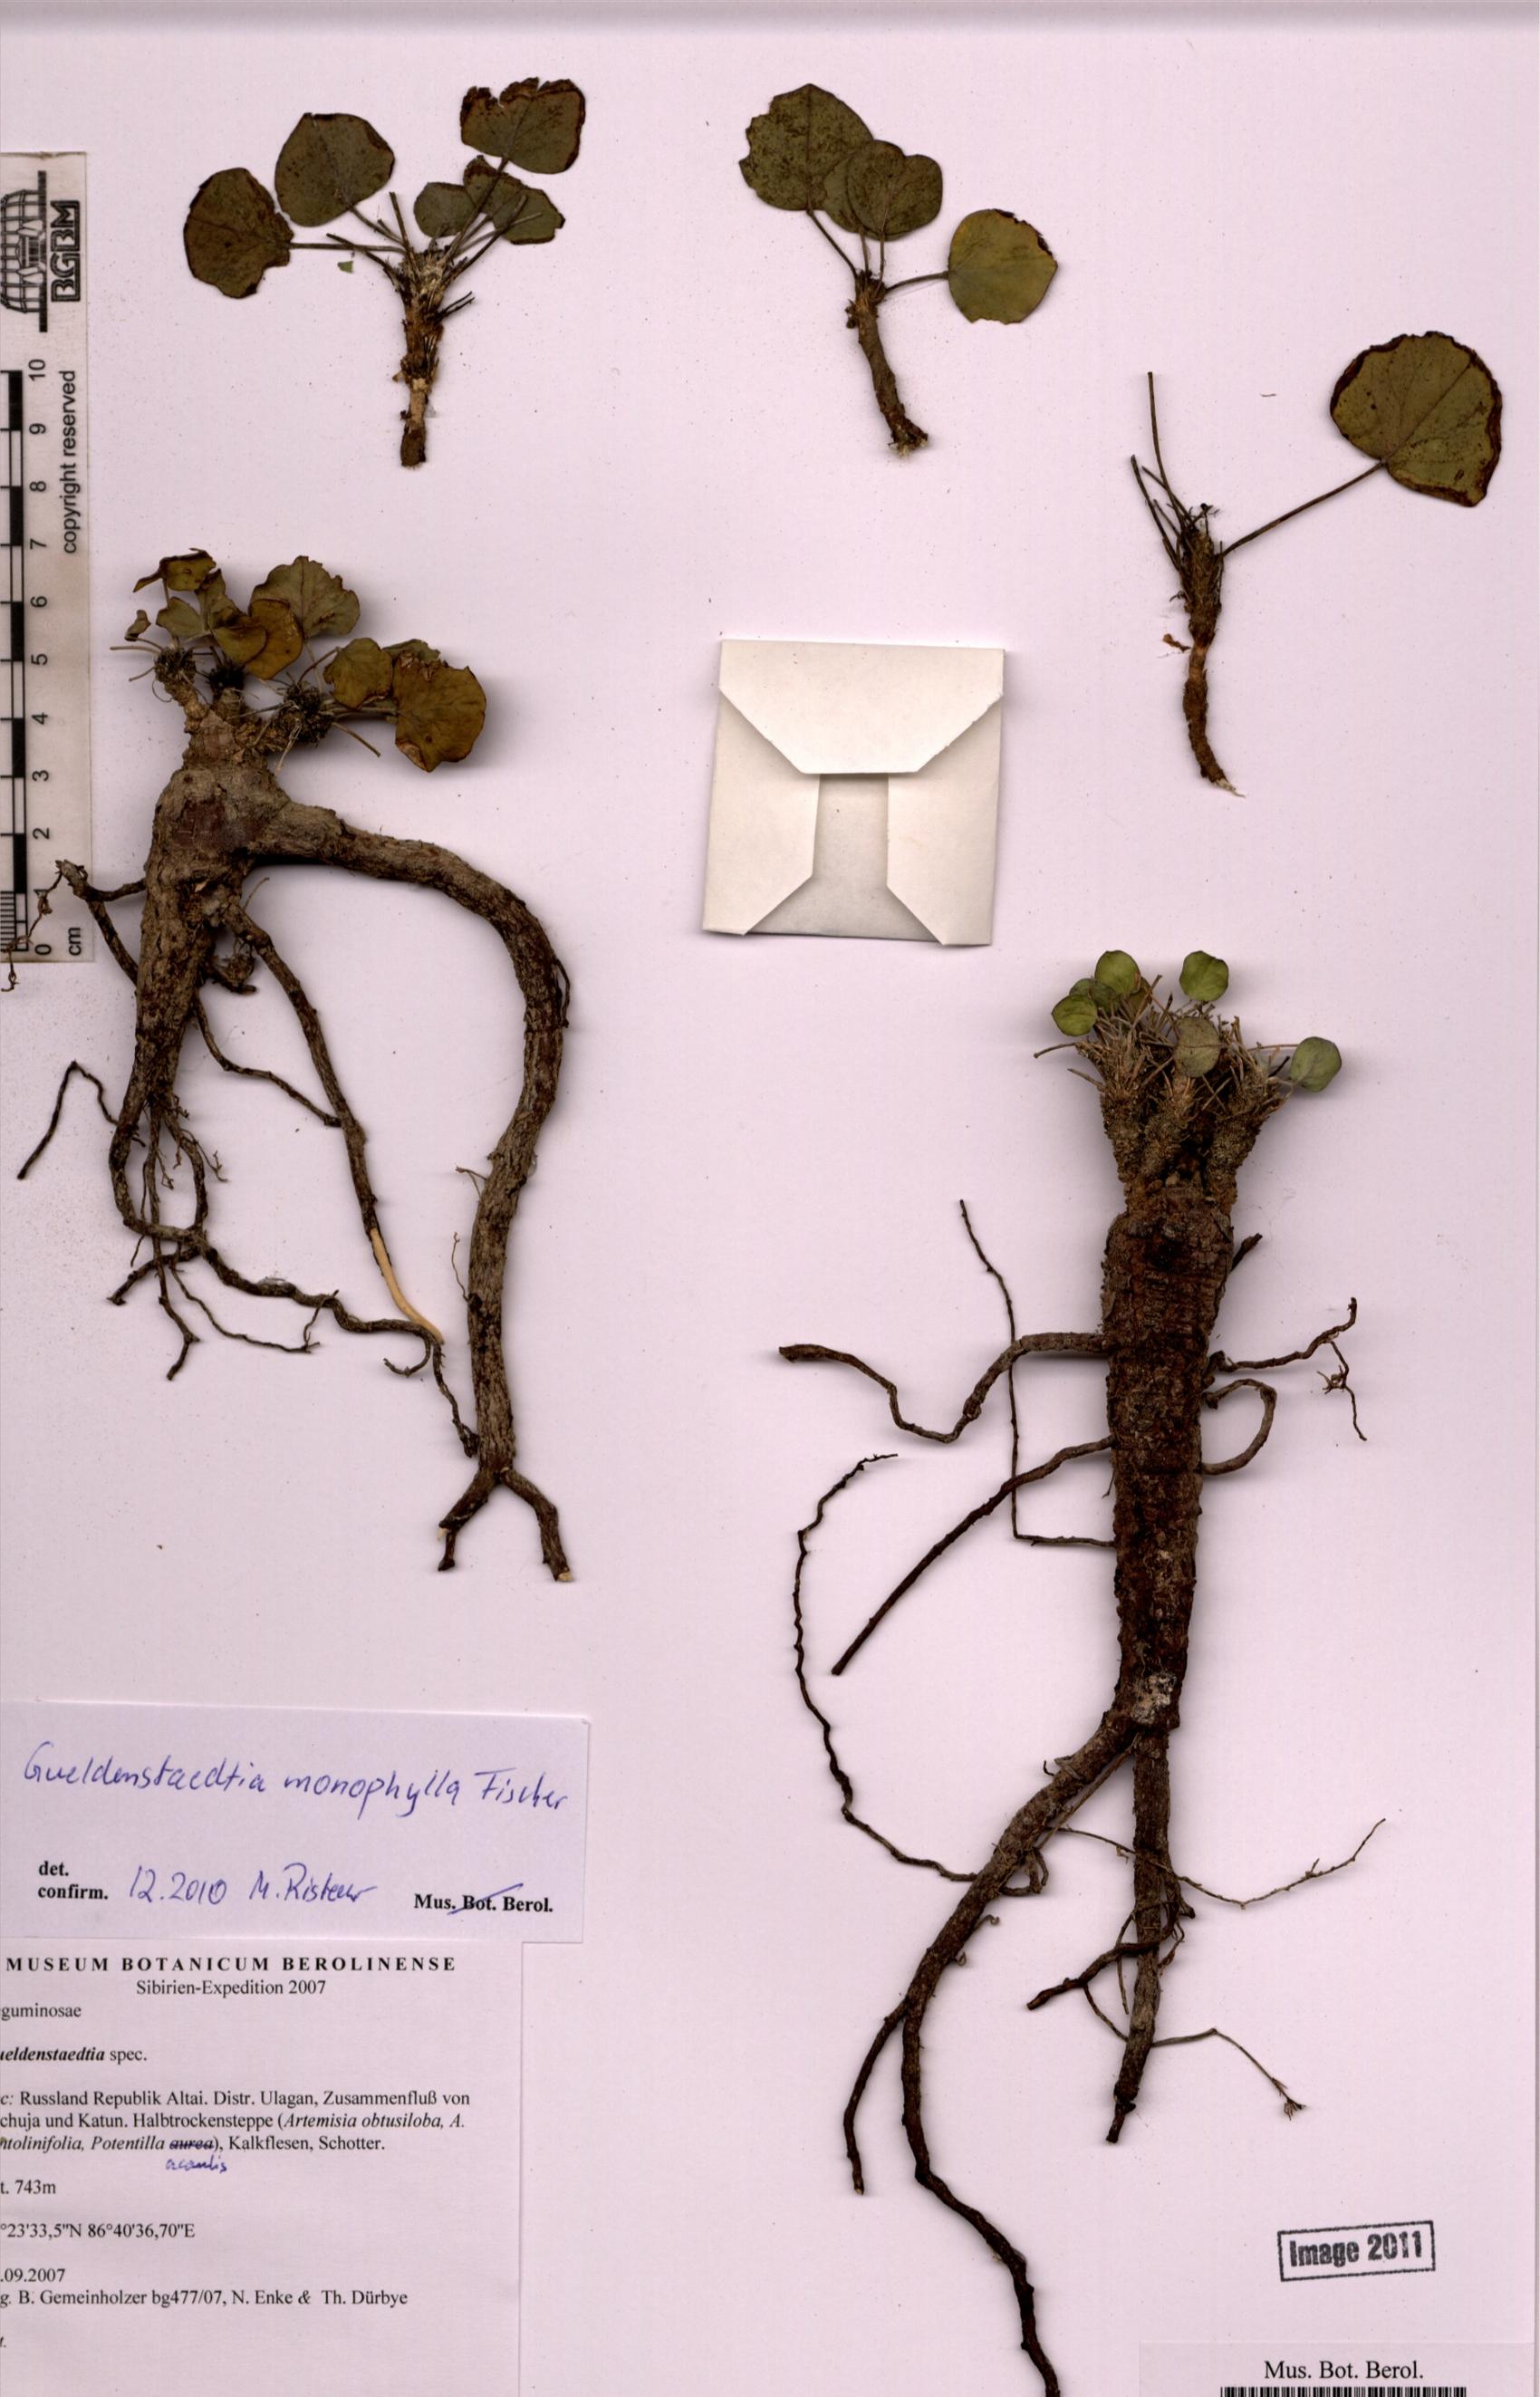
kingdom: Plantae
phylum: Tracheophyta
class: Magnoliopsida
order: Fabales
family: Fabaceae
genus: Gueldenstaedtia
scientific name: Gueldenstaedtia monophylla
